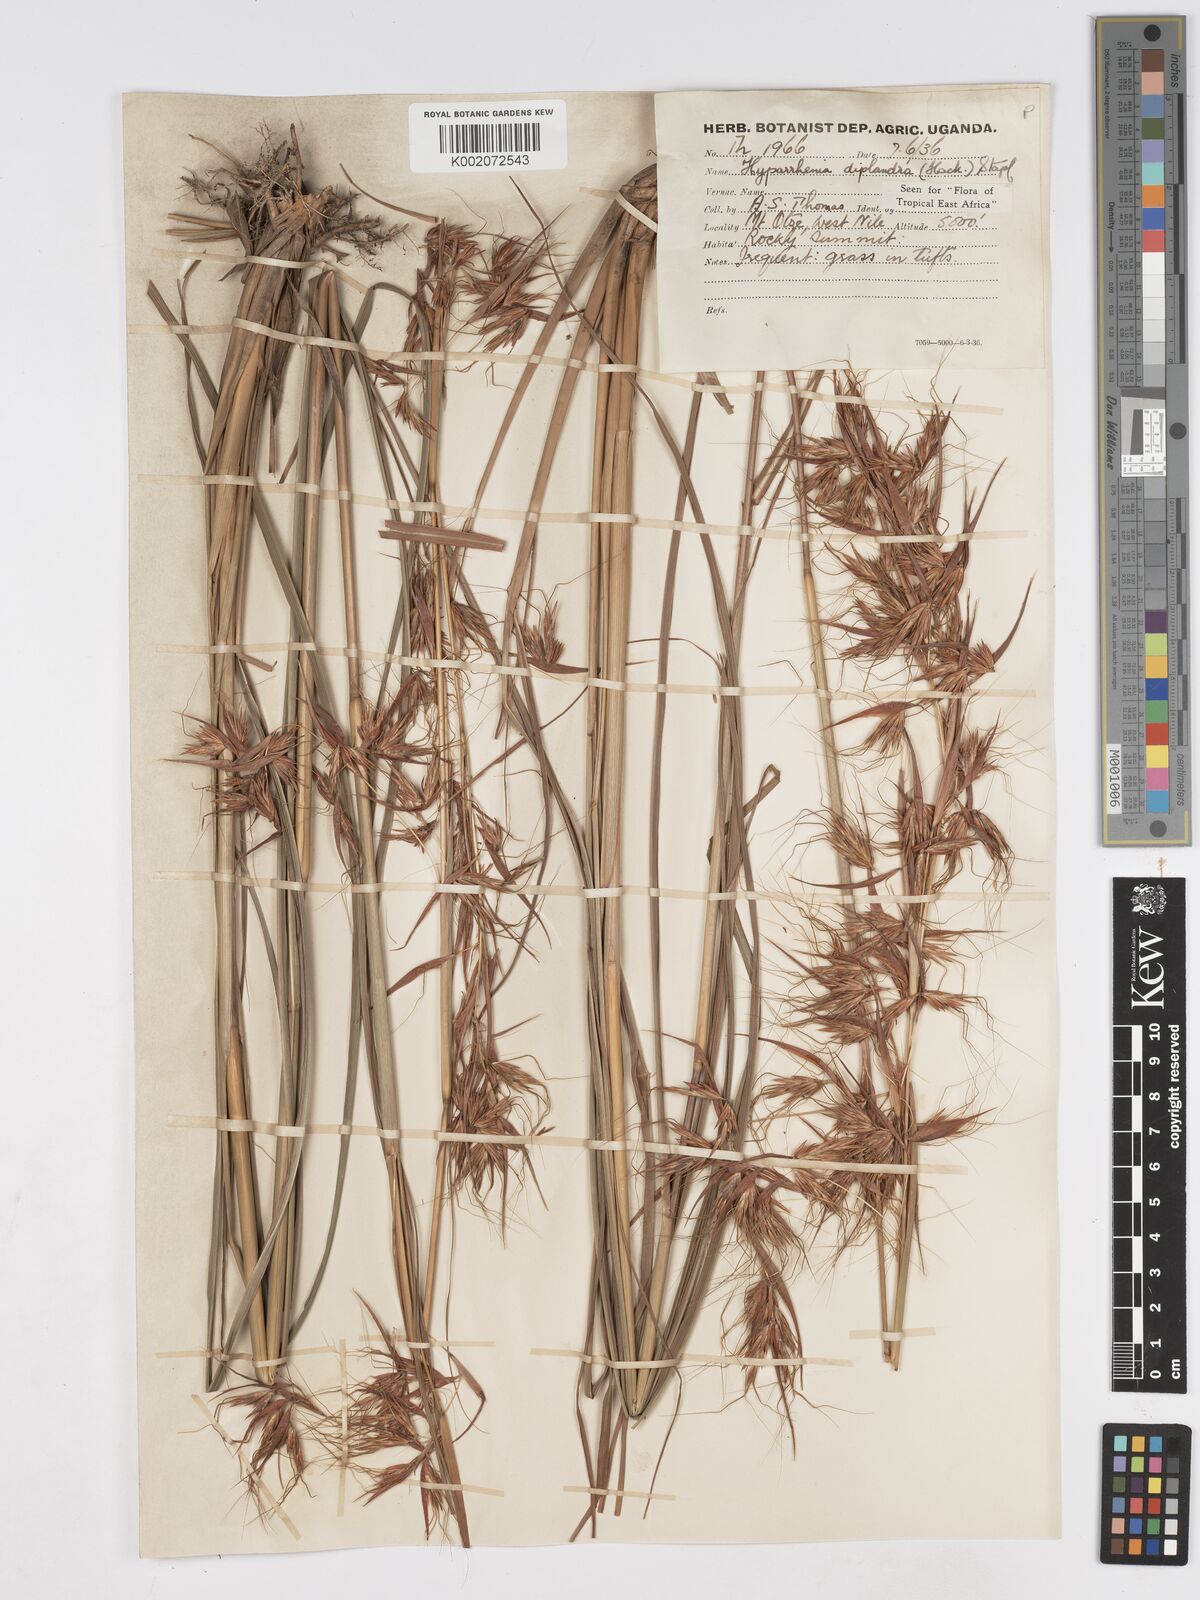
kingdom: Plantae
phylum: Tracheophyta
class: Liliopsida
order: Poales
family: Poaceae
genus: Hyparrhenia
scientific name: Hyparrhenia diplandra
